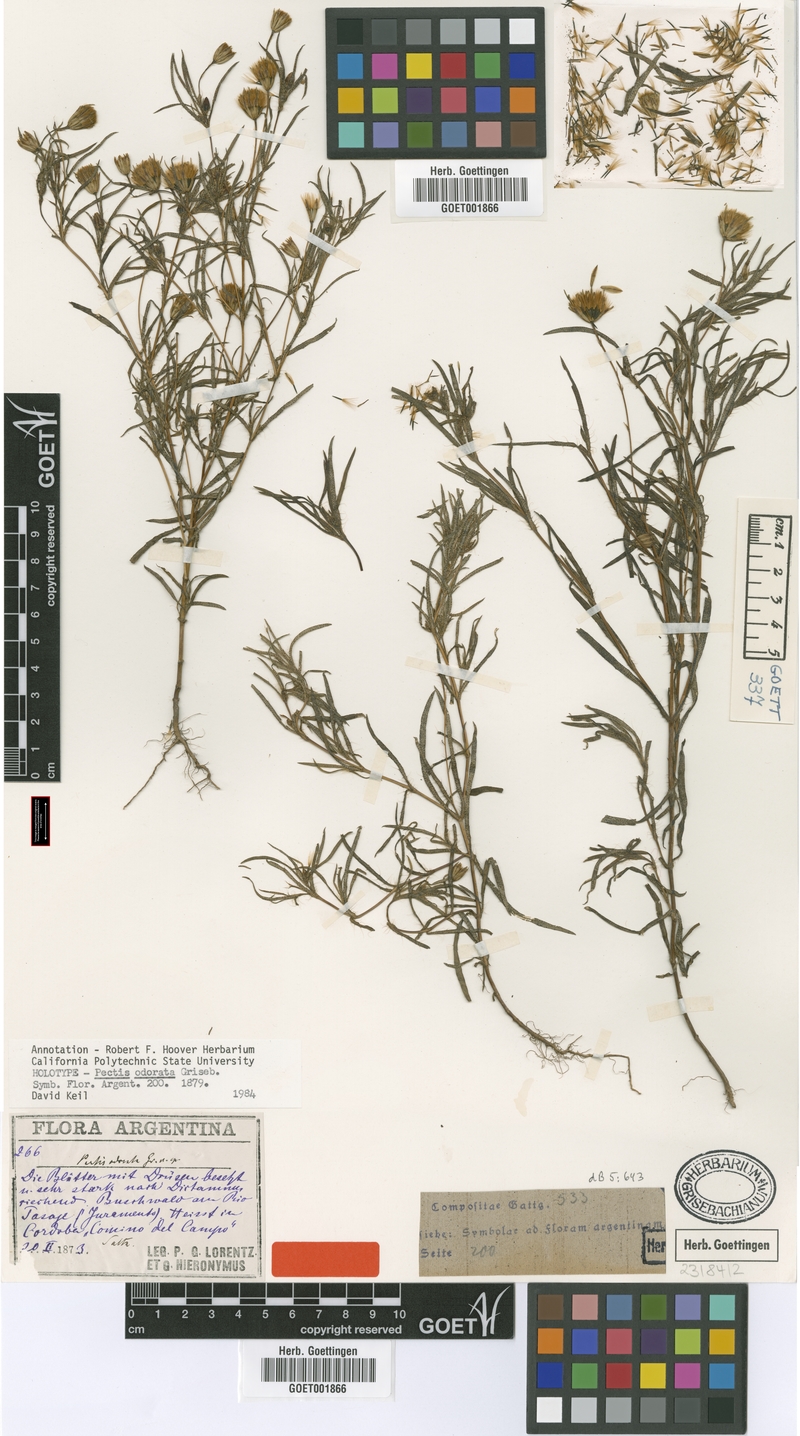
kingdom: Plantae
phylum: Tracheophyta
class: Magnoliopsida
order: Asterales
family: Asteraceae
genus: Pectis
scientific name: Pectis odorata
